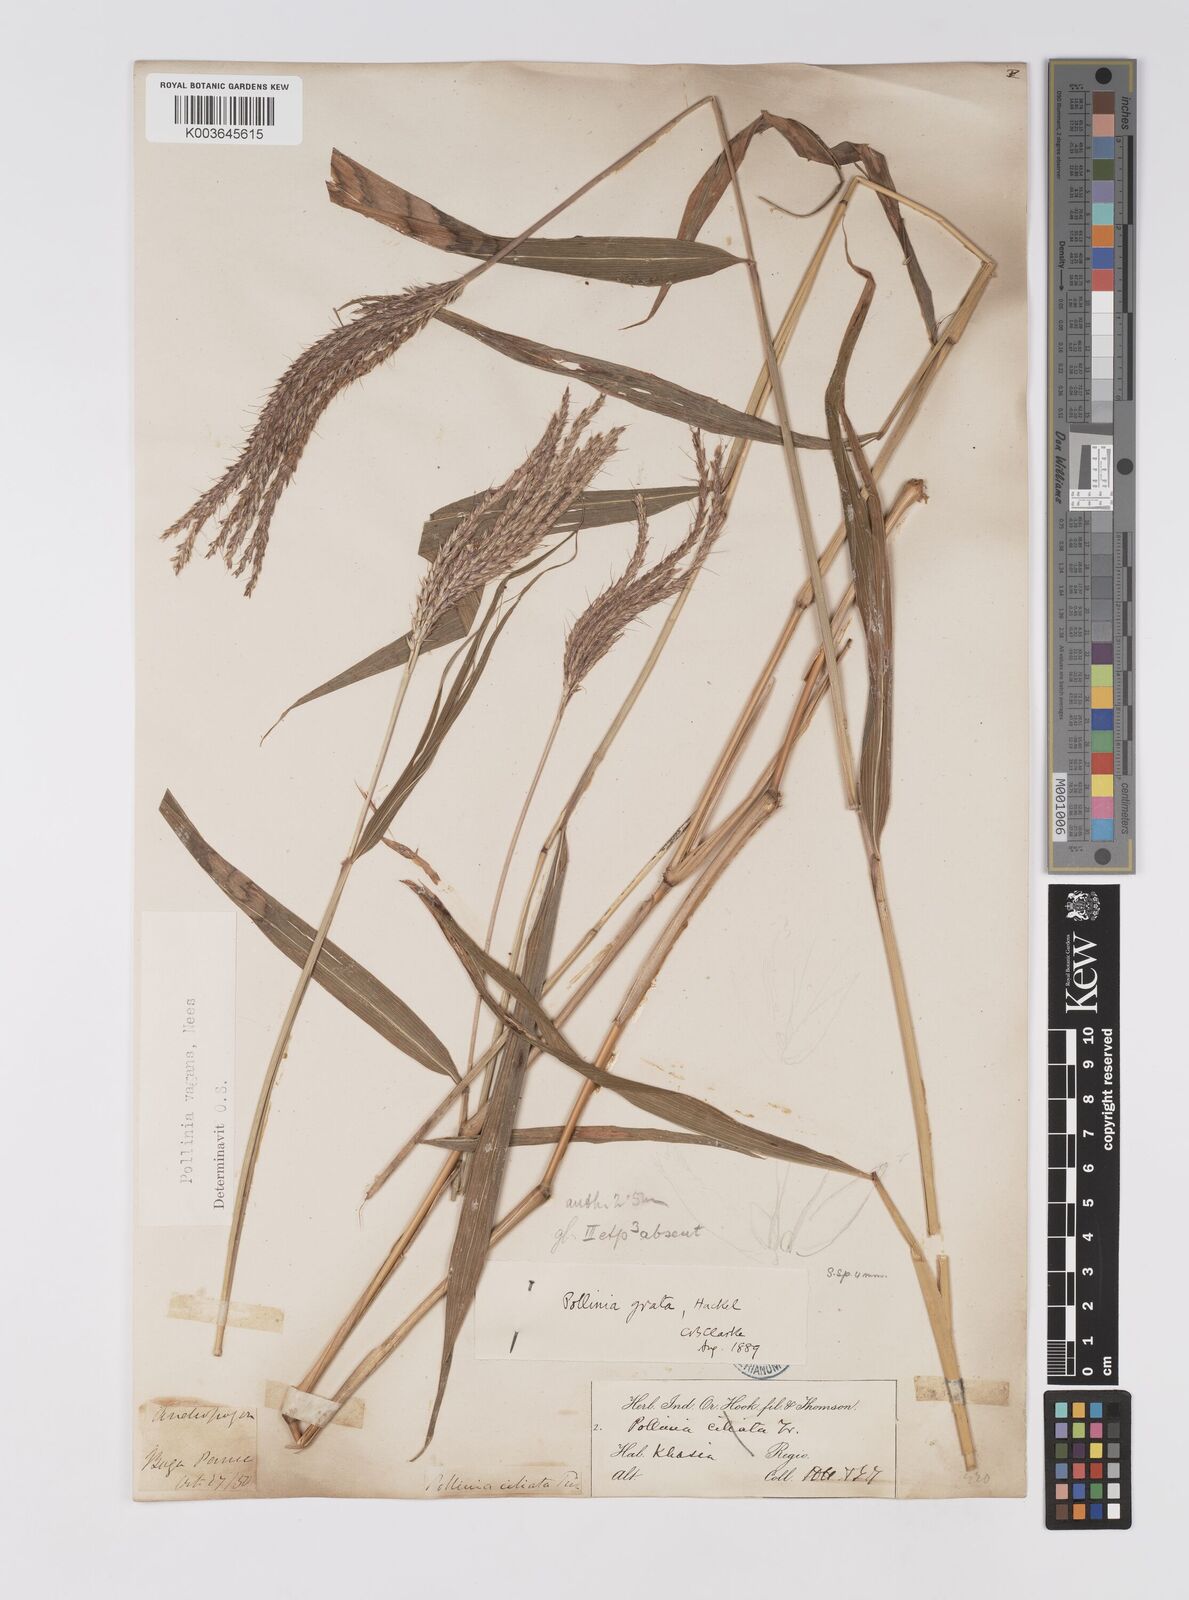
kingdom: Plantae
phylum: Tracheophyta
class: Liliopsida
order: Poales
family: Poaceae
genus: Microstegium
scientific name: Microstegium fasciculatum
